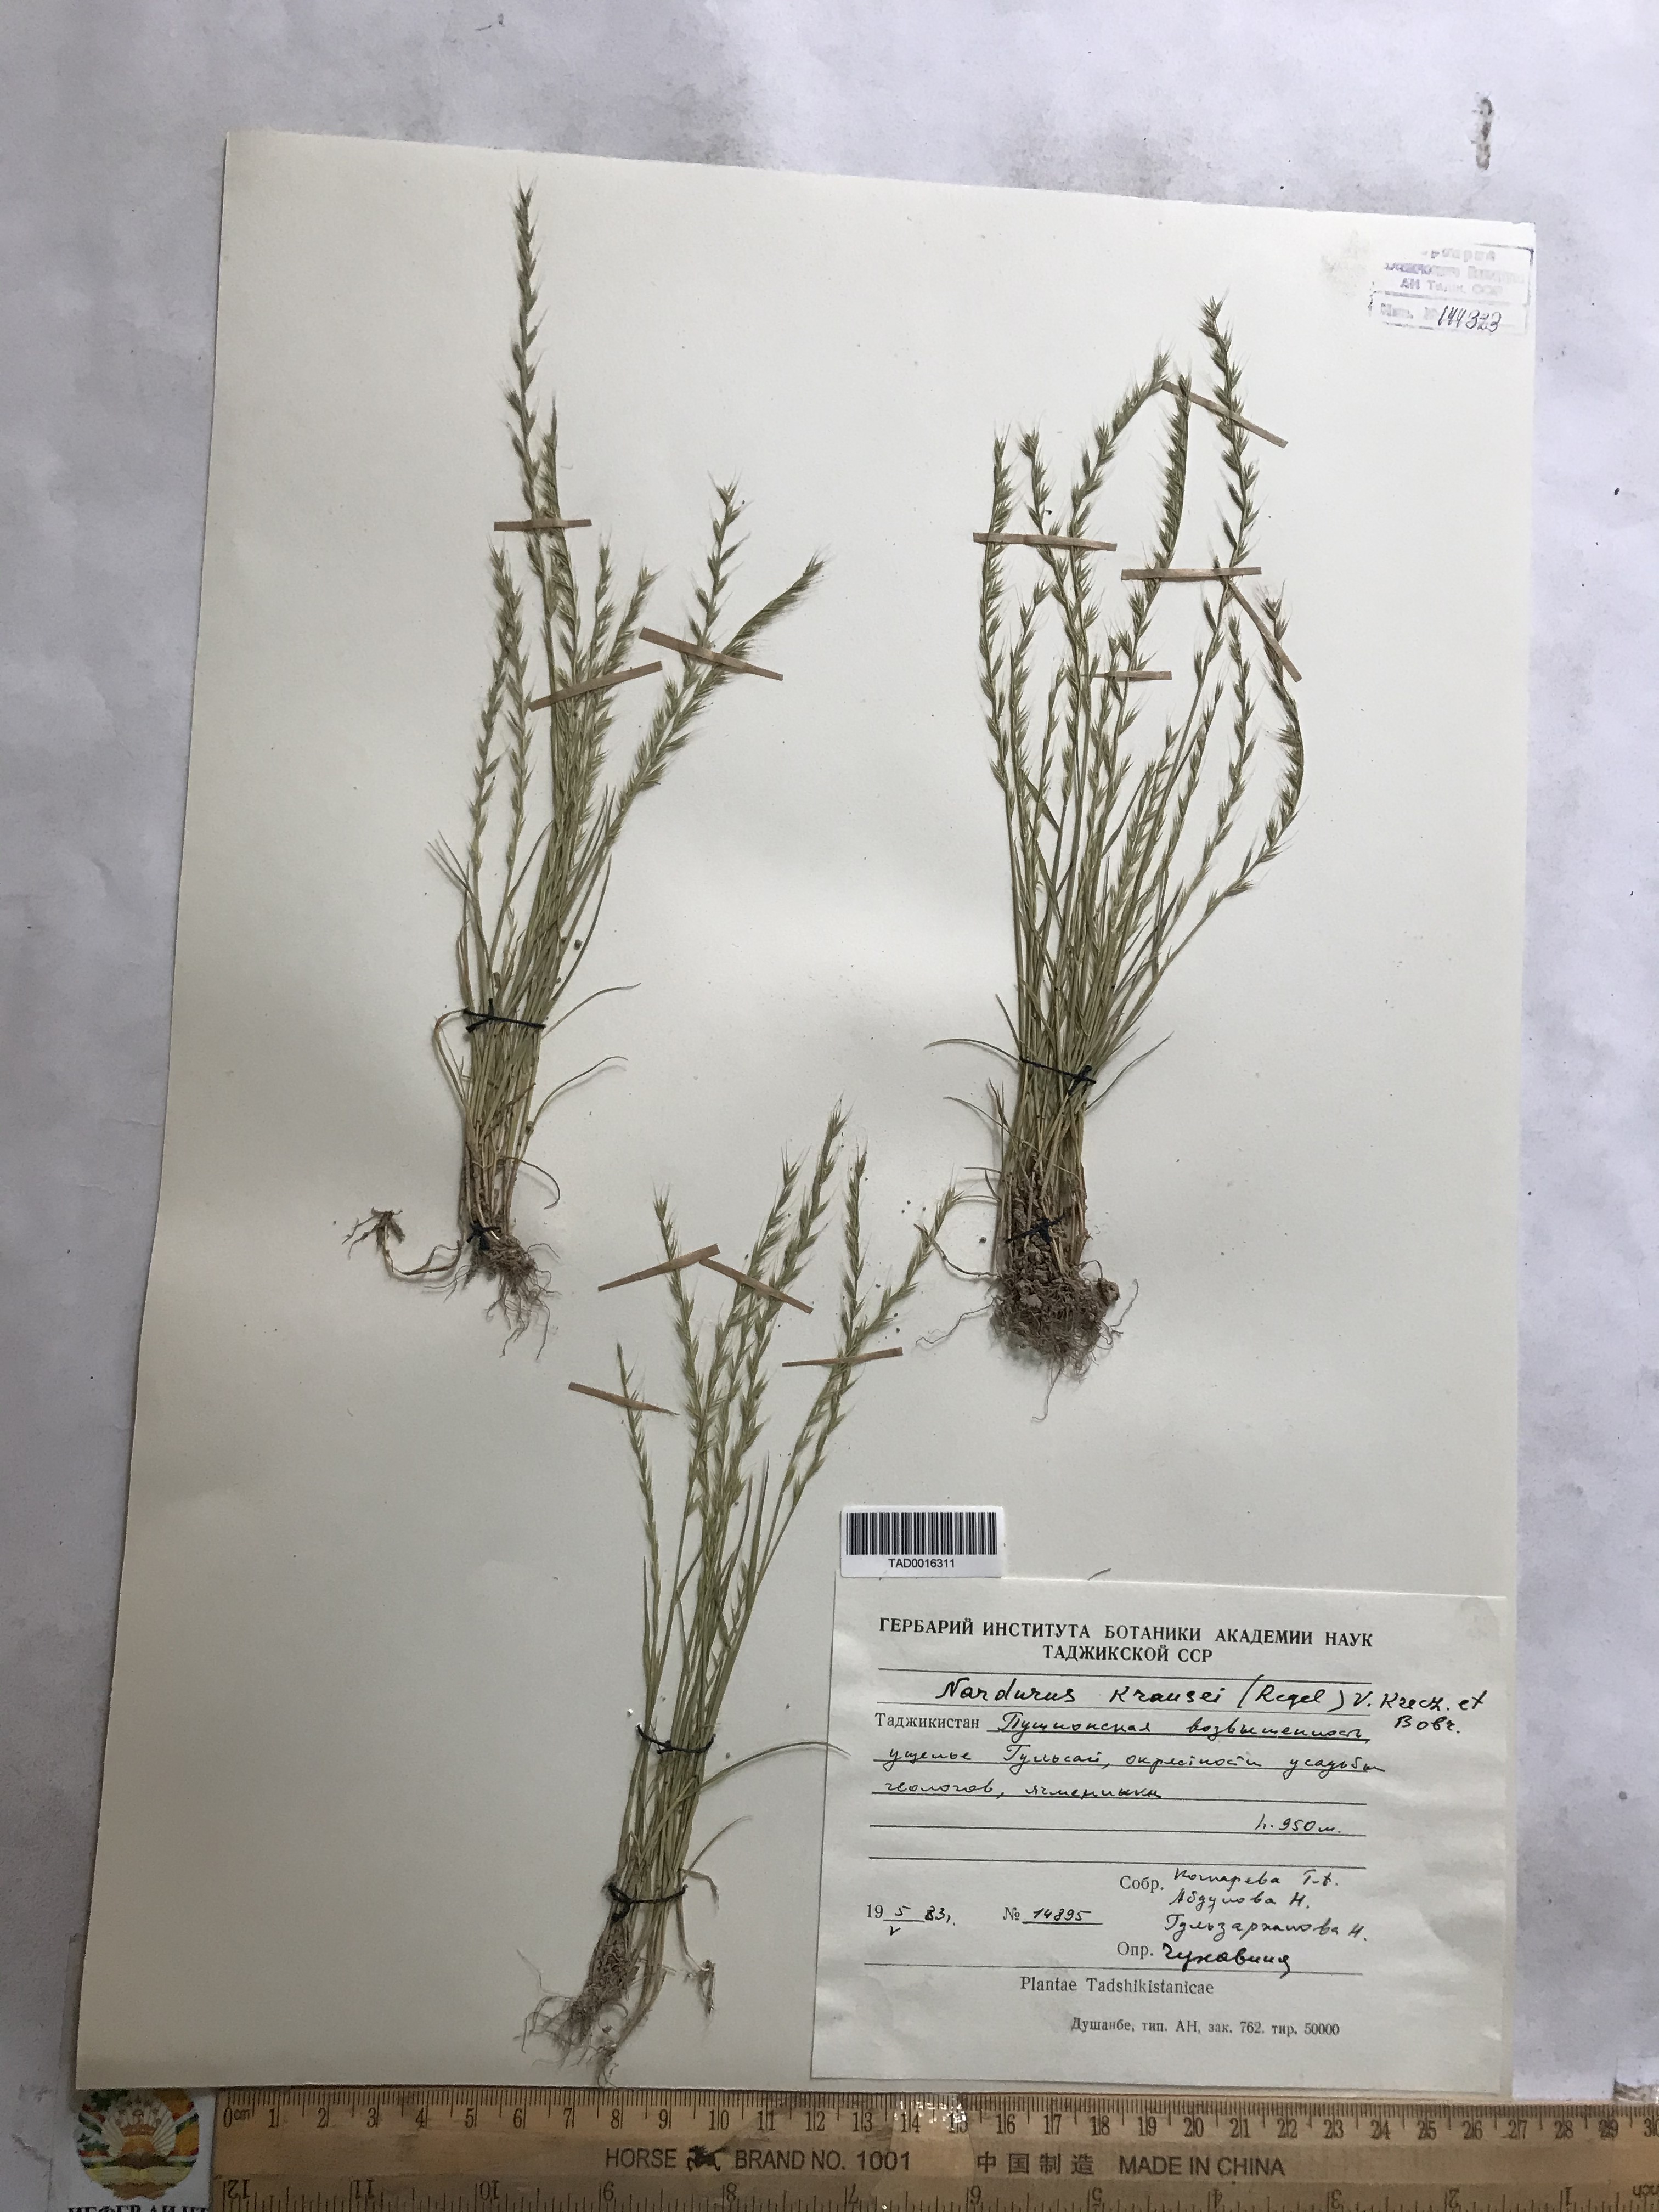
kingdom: Plantae
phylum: Tracheophyta
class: Liliopsida
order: Poales
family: Poaceae
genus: Festuca
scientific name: Festuca maritima
